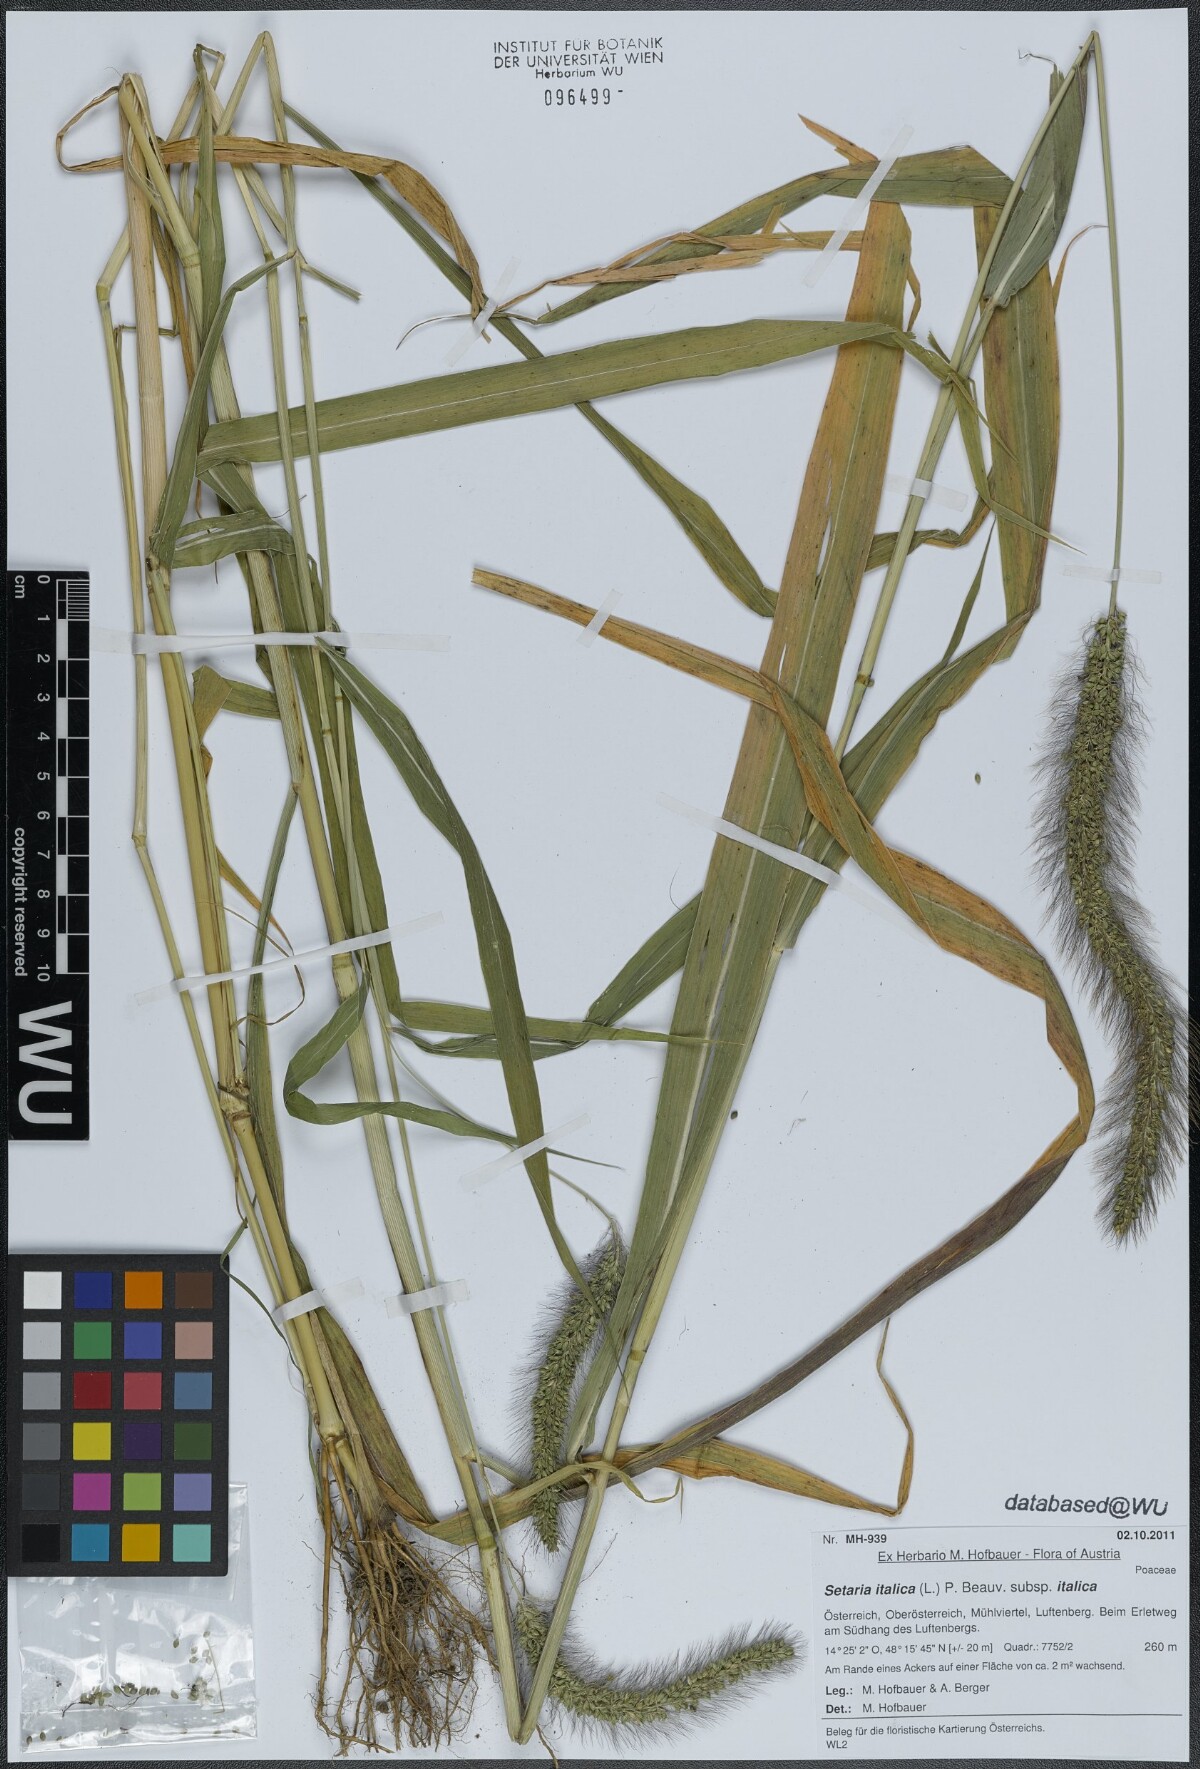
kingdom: Plantae
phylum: Tracheophyta
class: Liliopsida
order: Poales
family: Poaceae
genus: Setaria
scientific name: Setaria italica
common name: Foxtail bristle-grass
